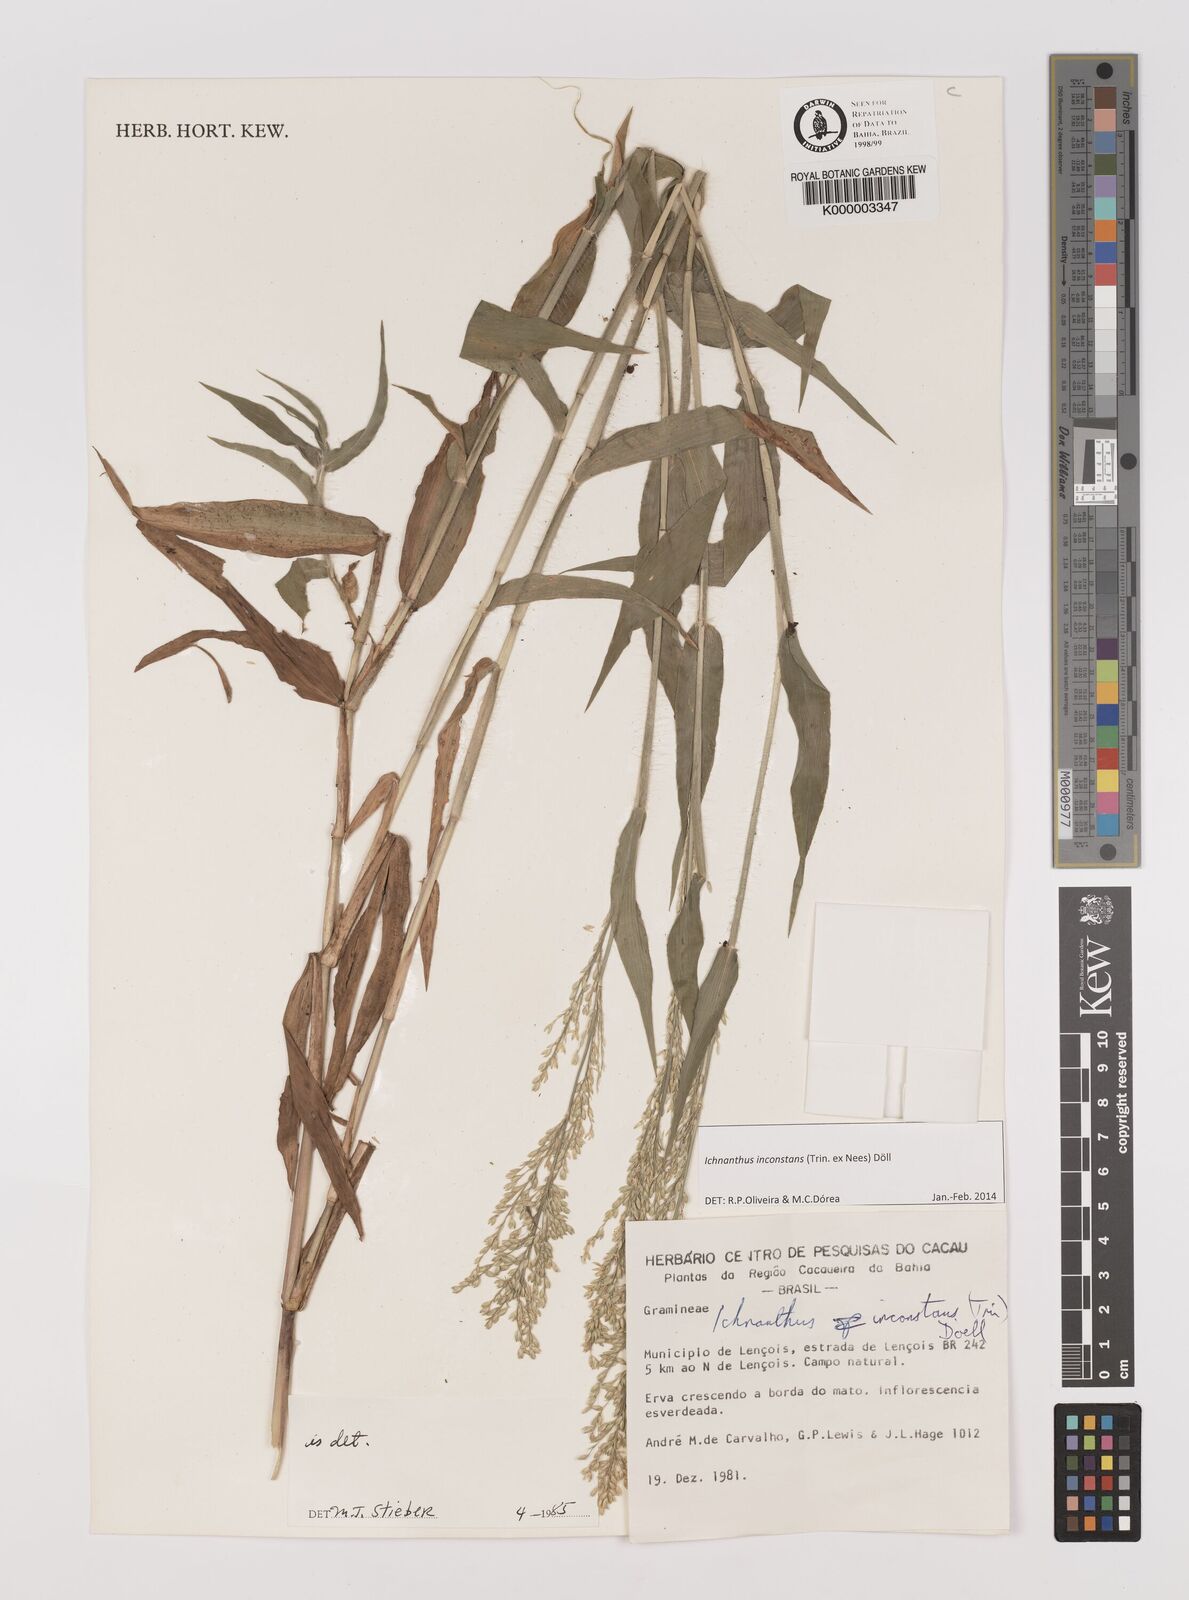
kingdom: Plantae
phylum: Tracheophyta
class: Liliopsida
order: Poales
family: Poaceae
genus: Ichnanthus
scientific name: Ichnanthus
